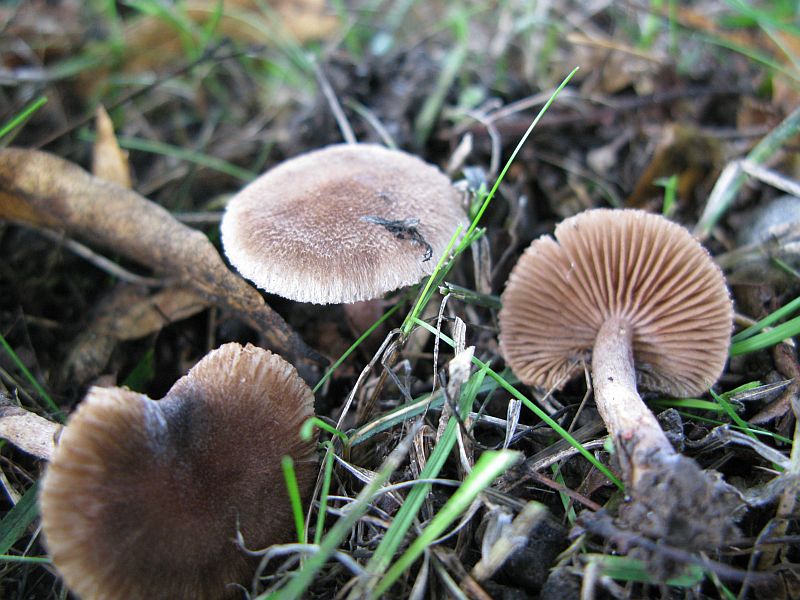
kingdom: Fungi
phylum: Basidiomycota
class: Agaricomycetes
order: Agaricales
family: Inocybaceae
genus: Inocybe
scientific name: Inocybe
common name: trævlhat
